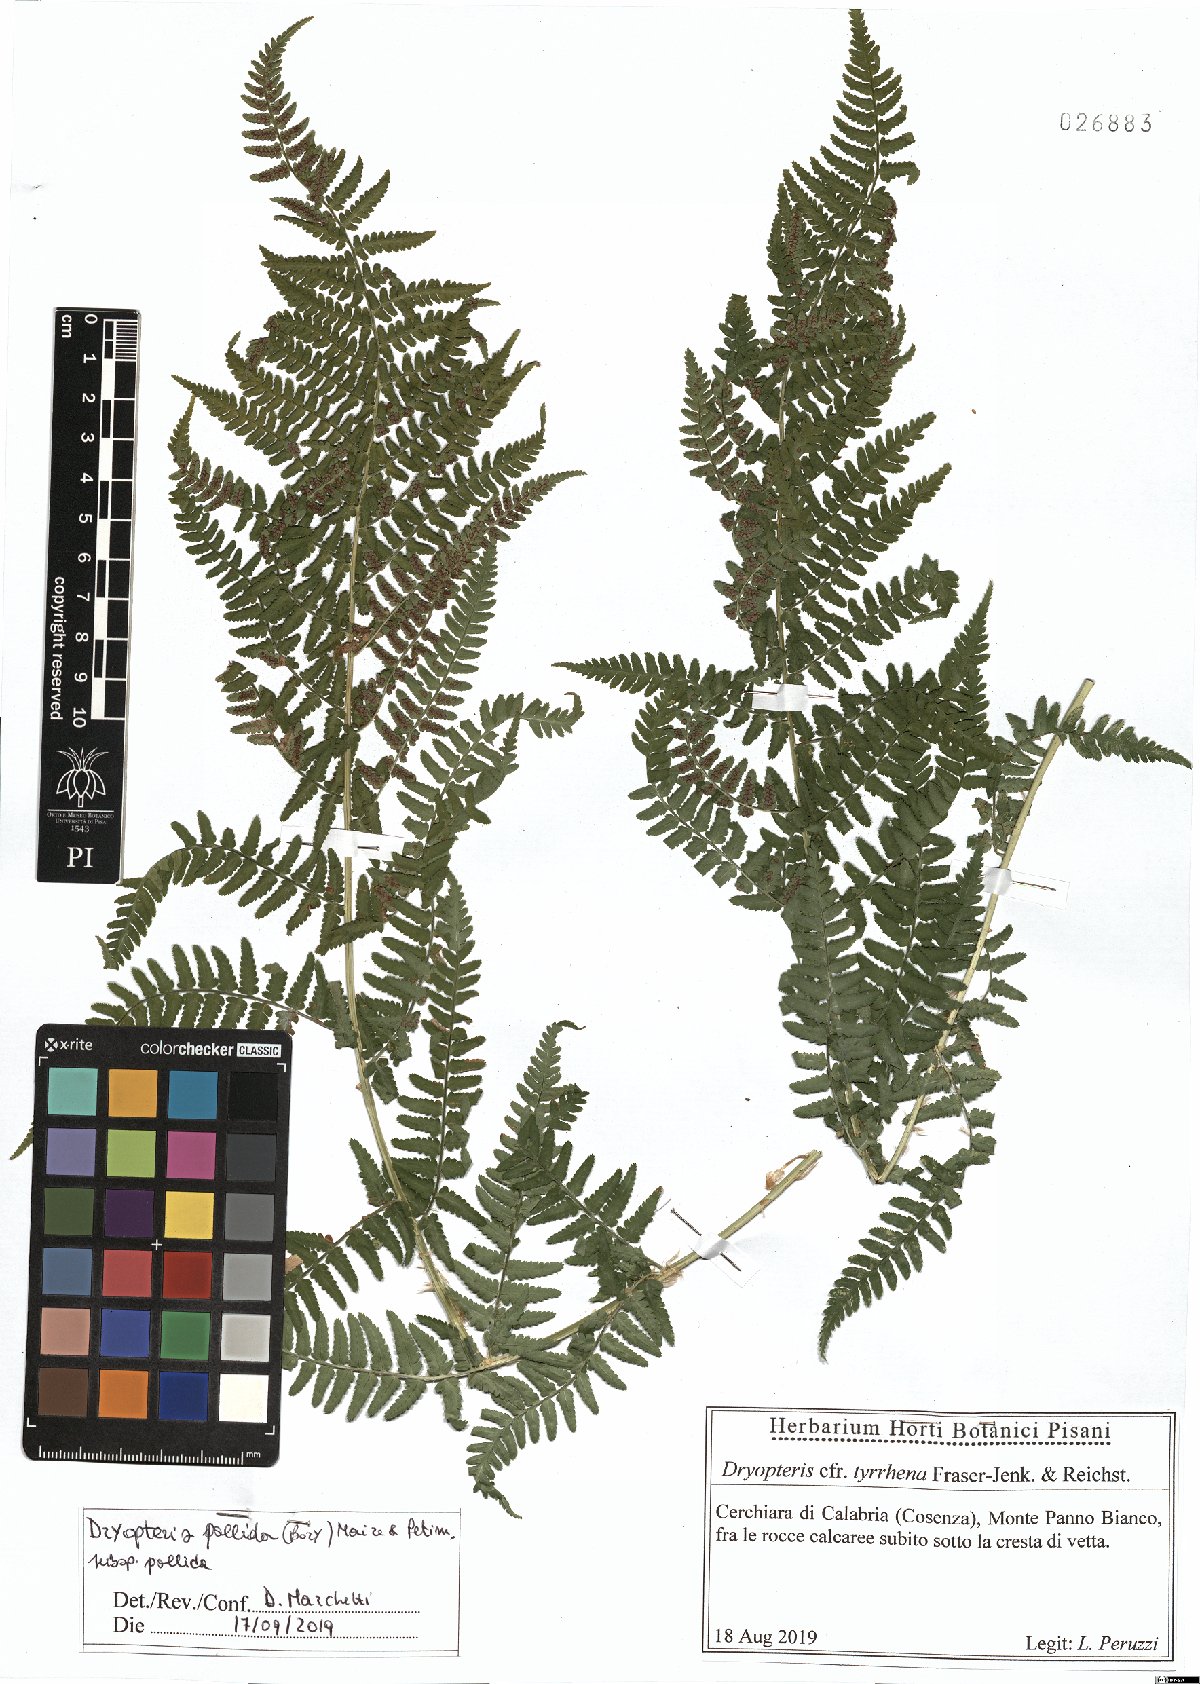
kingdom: Plantae
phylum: Tracheophyta
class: Polypodiopsida
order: Polypodiales
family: Dryopteridaceae
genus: Dryopteris
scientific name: Dryopteris pallida
